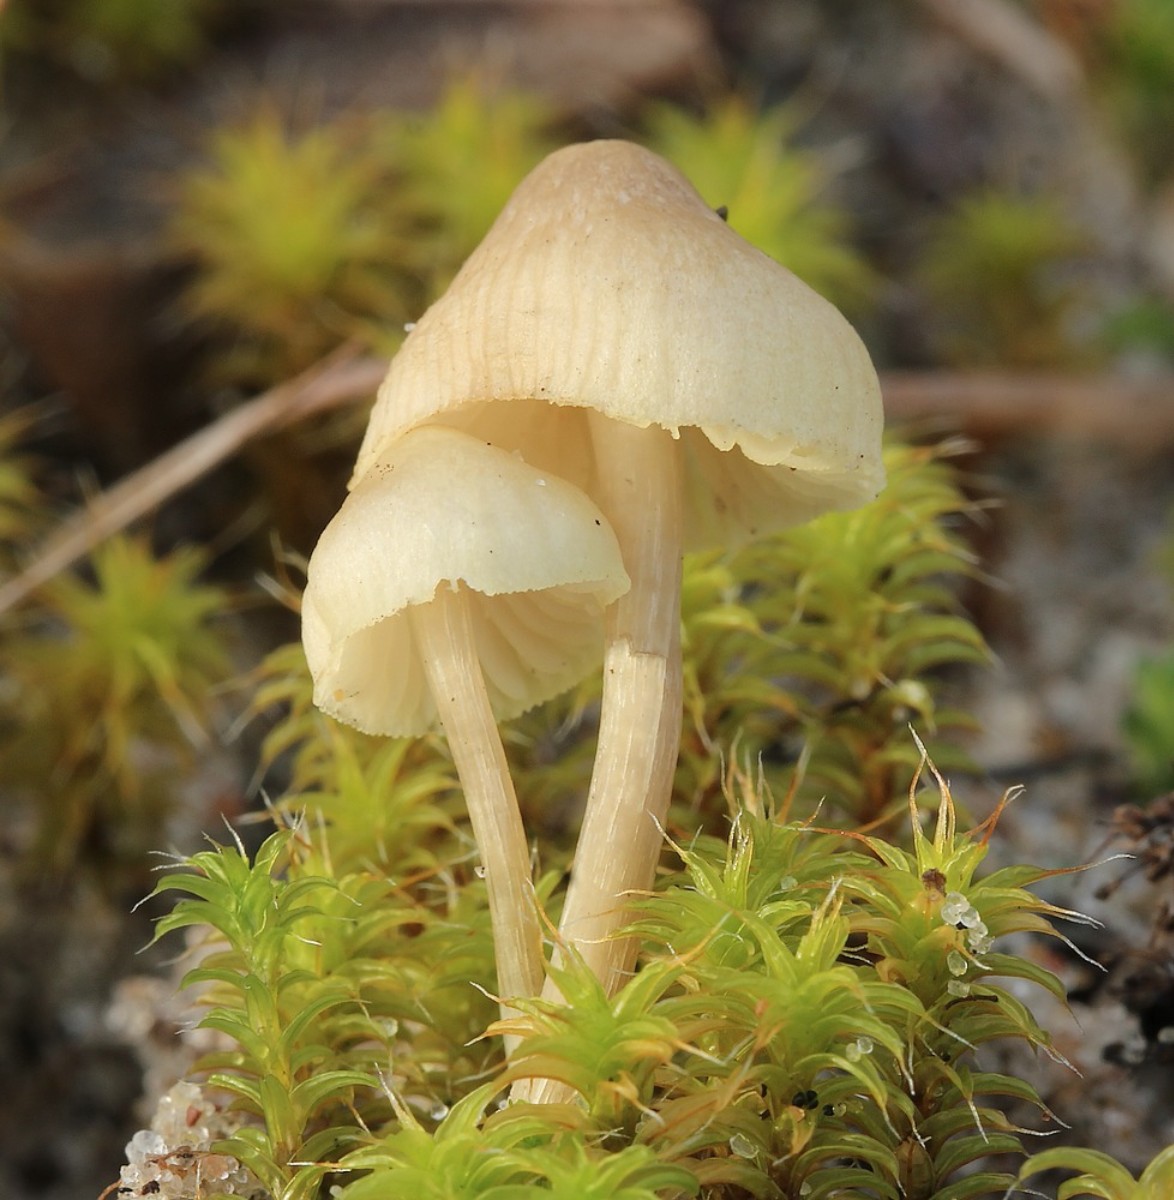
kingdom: Fungi
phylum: Basidiomycota
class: Agaricomycetes
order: Agaricales
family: Mycenaceae
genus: Mycena
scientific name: Mycena
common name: huesvamp
